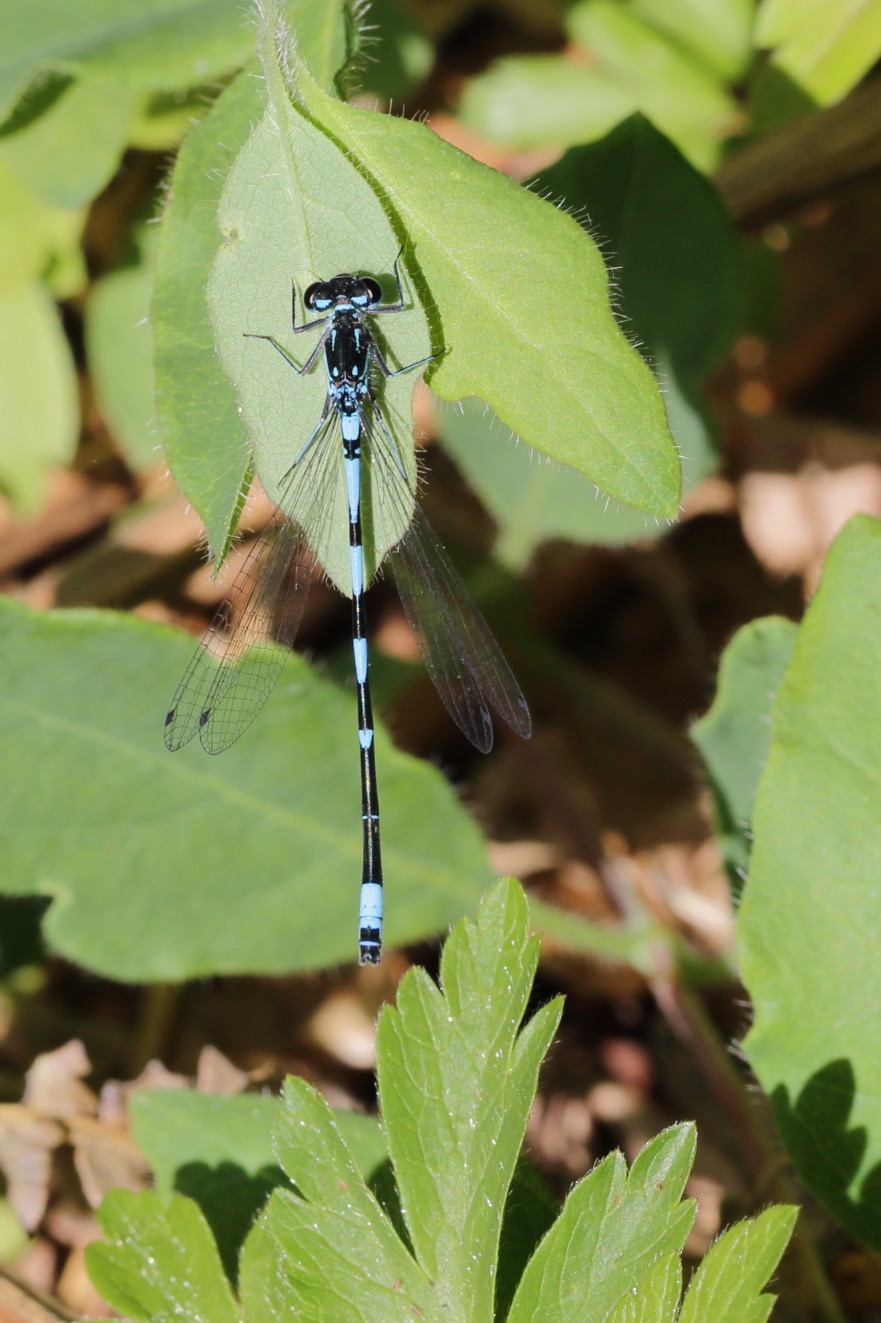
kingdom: Animalia
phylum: Arthropoda
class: Insecta
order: Odonata
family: Coenagrionidae
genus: Coenagrion
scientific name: Coenagrion pulchellum
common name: Flagermus-vandnymfe
